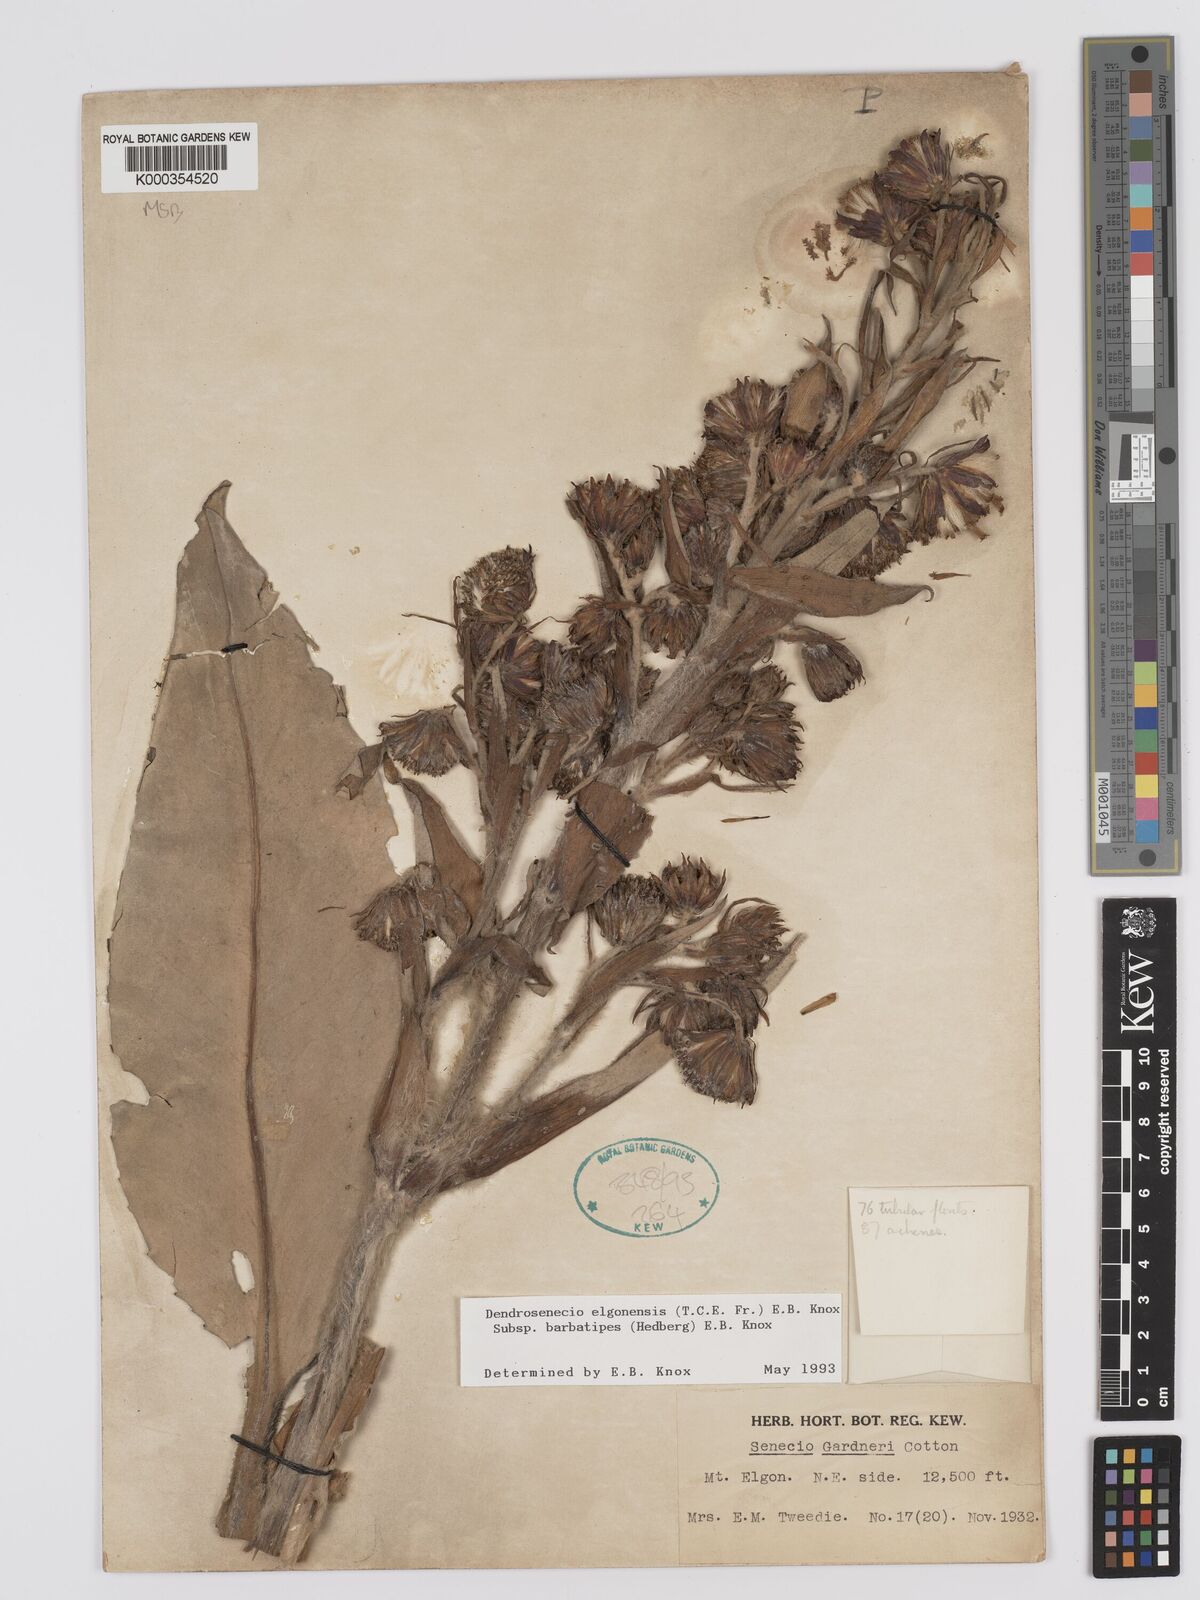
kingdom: Plantae
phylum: Tracheophyta
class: Magnoliopsida
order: Asterales
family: Asteraceae
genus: Dendrosenecio
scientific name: Dendrosenecio elgonensis
